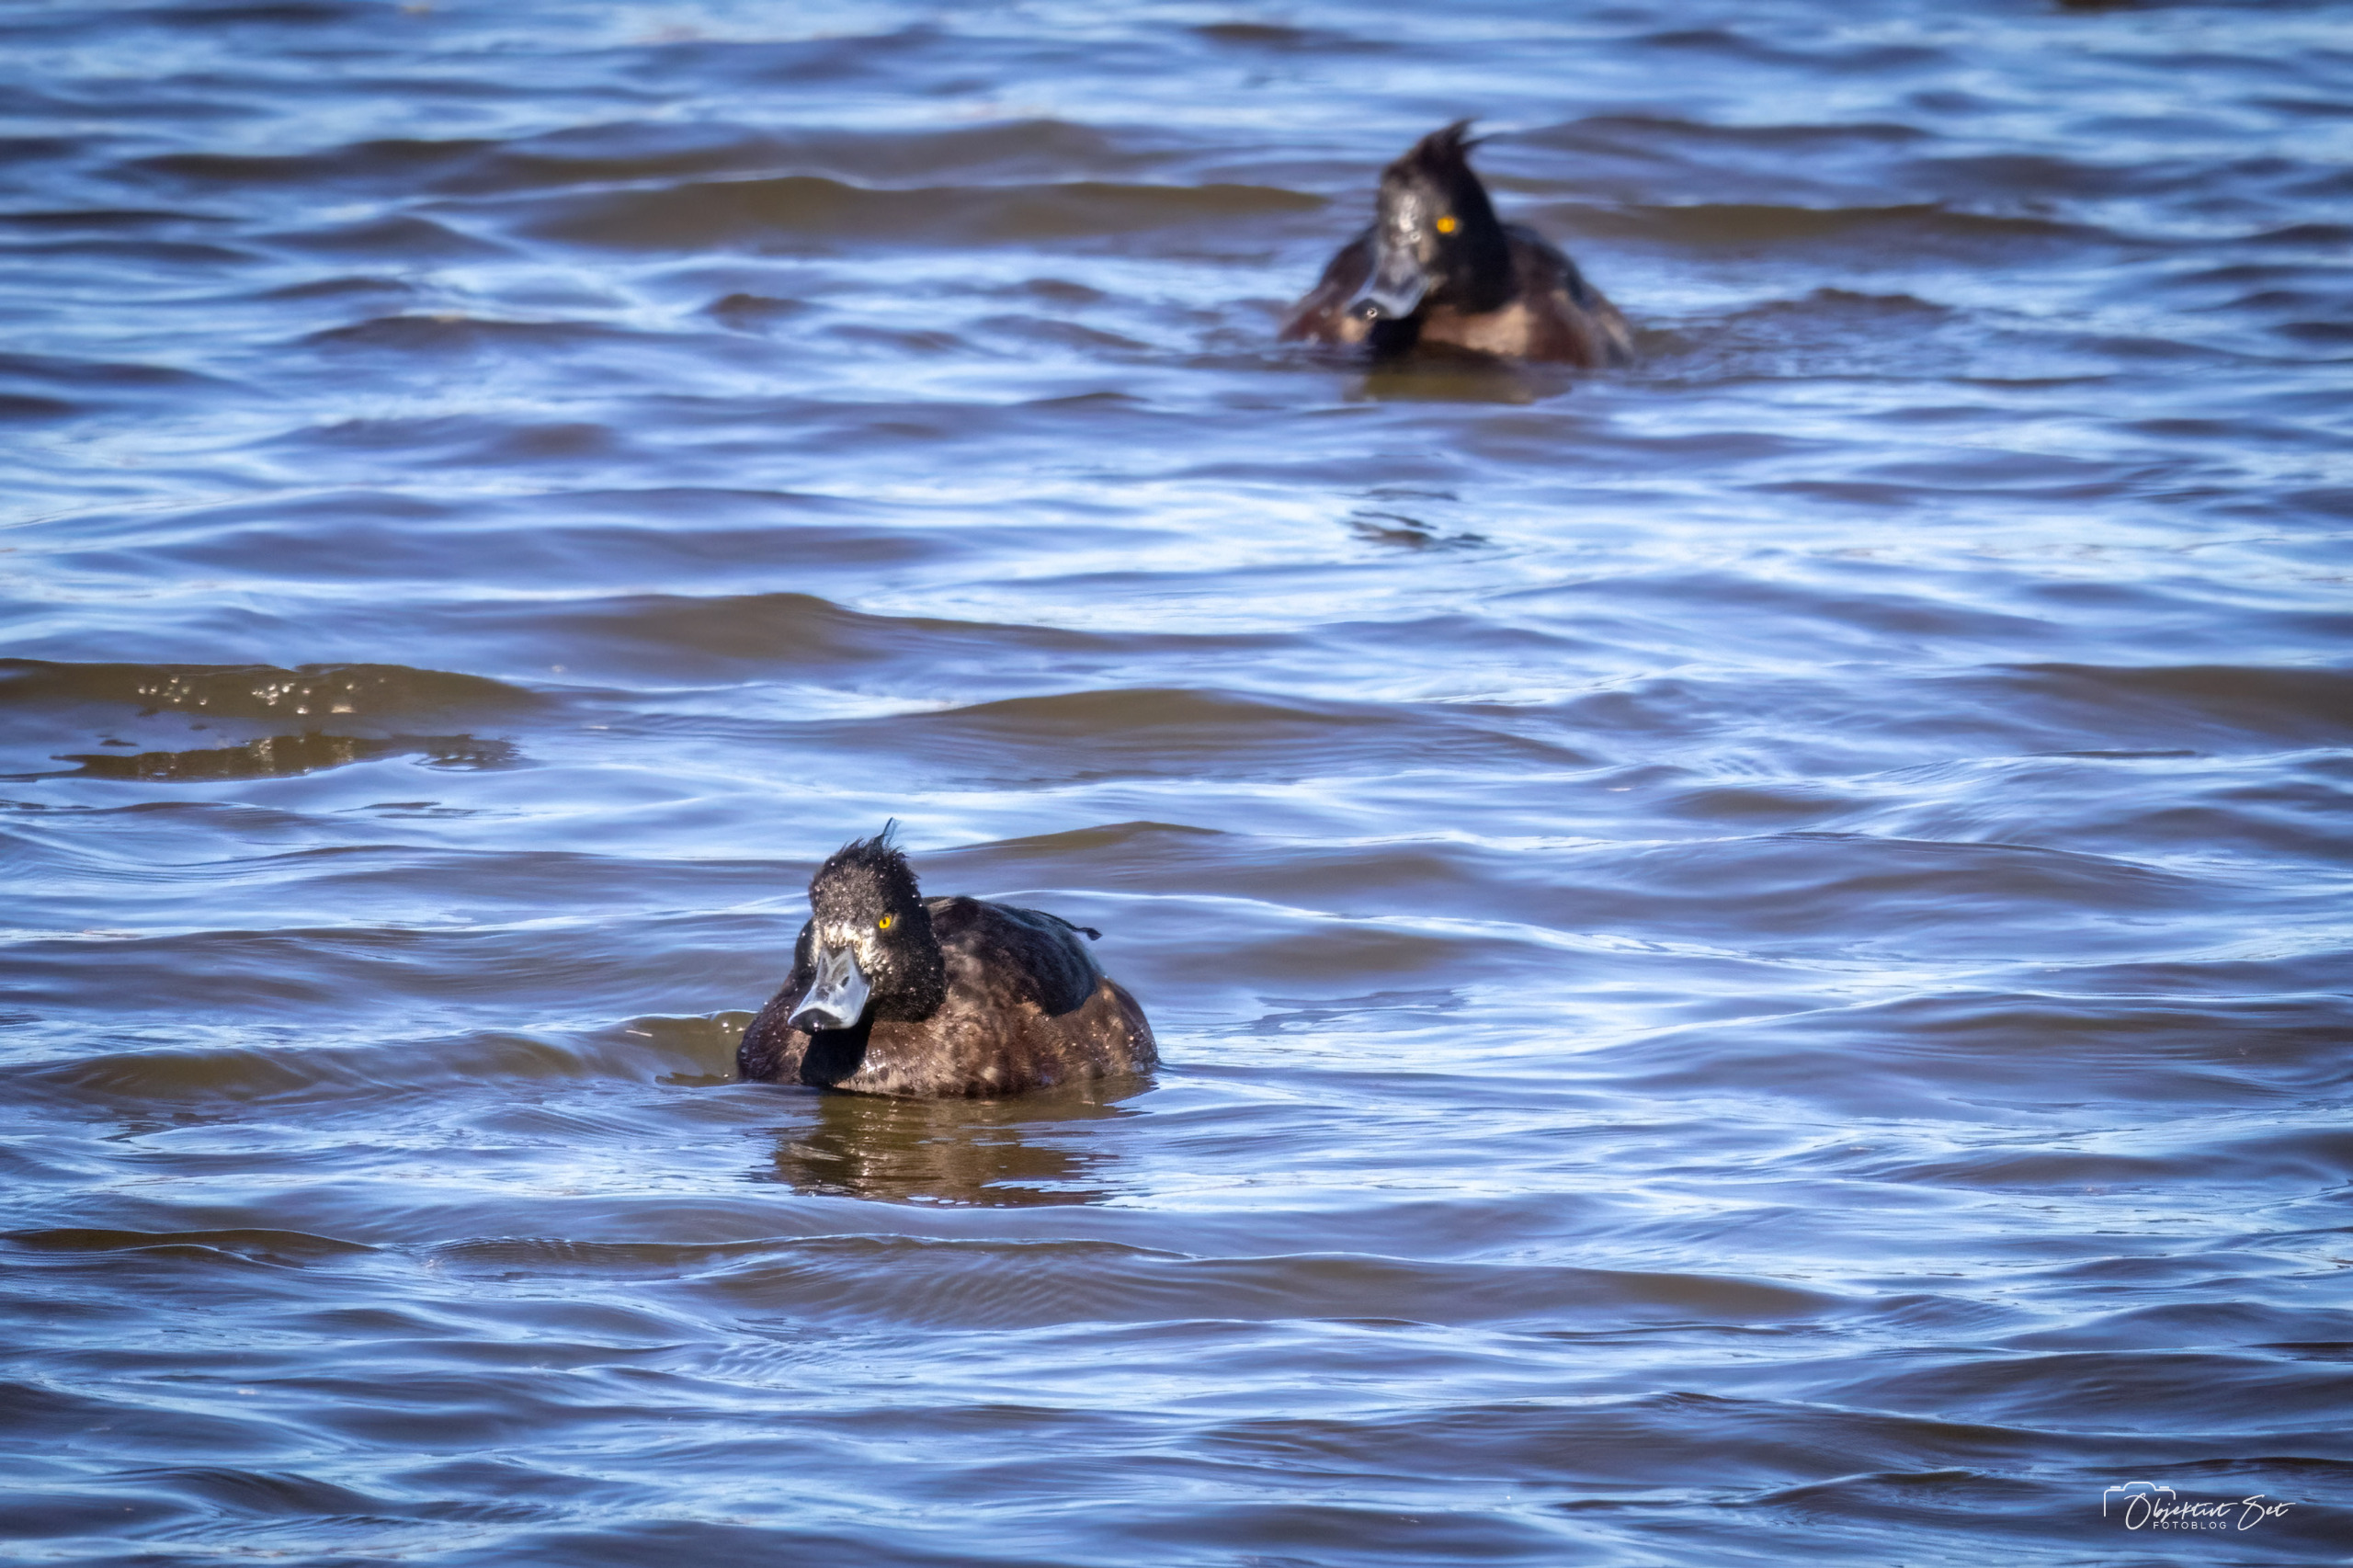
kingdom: Animalia
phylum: Chordata
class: Aves
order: Anseriformes
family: Anatidae
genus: Aythya
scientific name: Aythya fuligula
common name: Troldand
